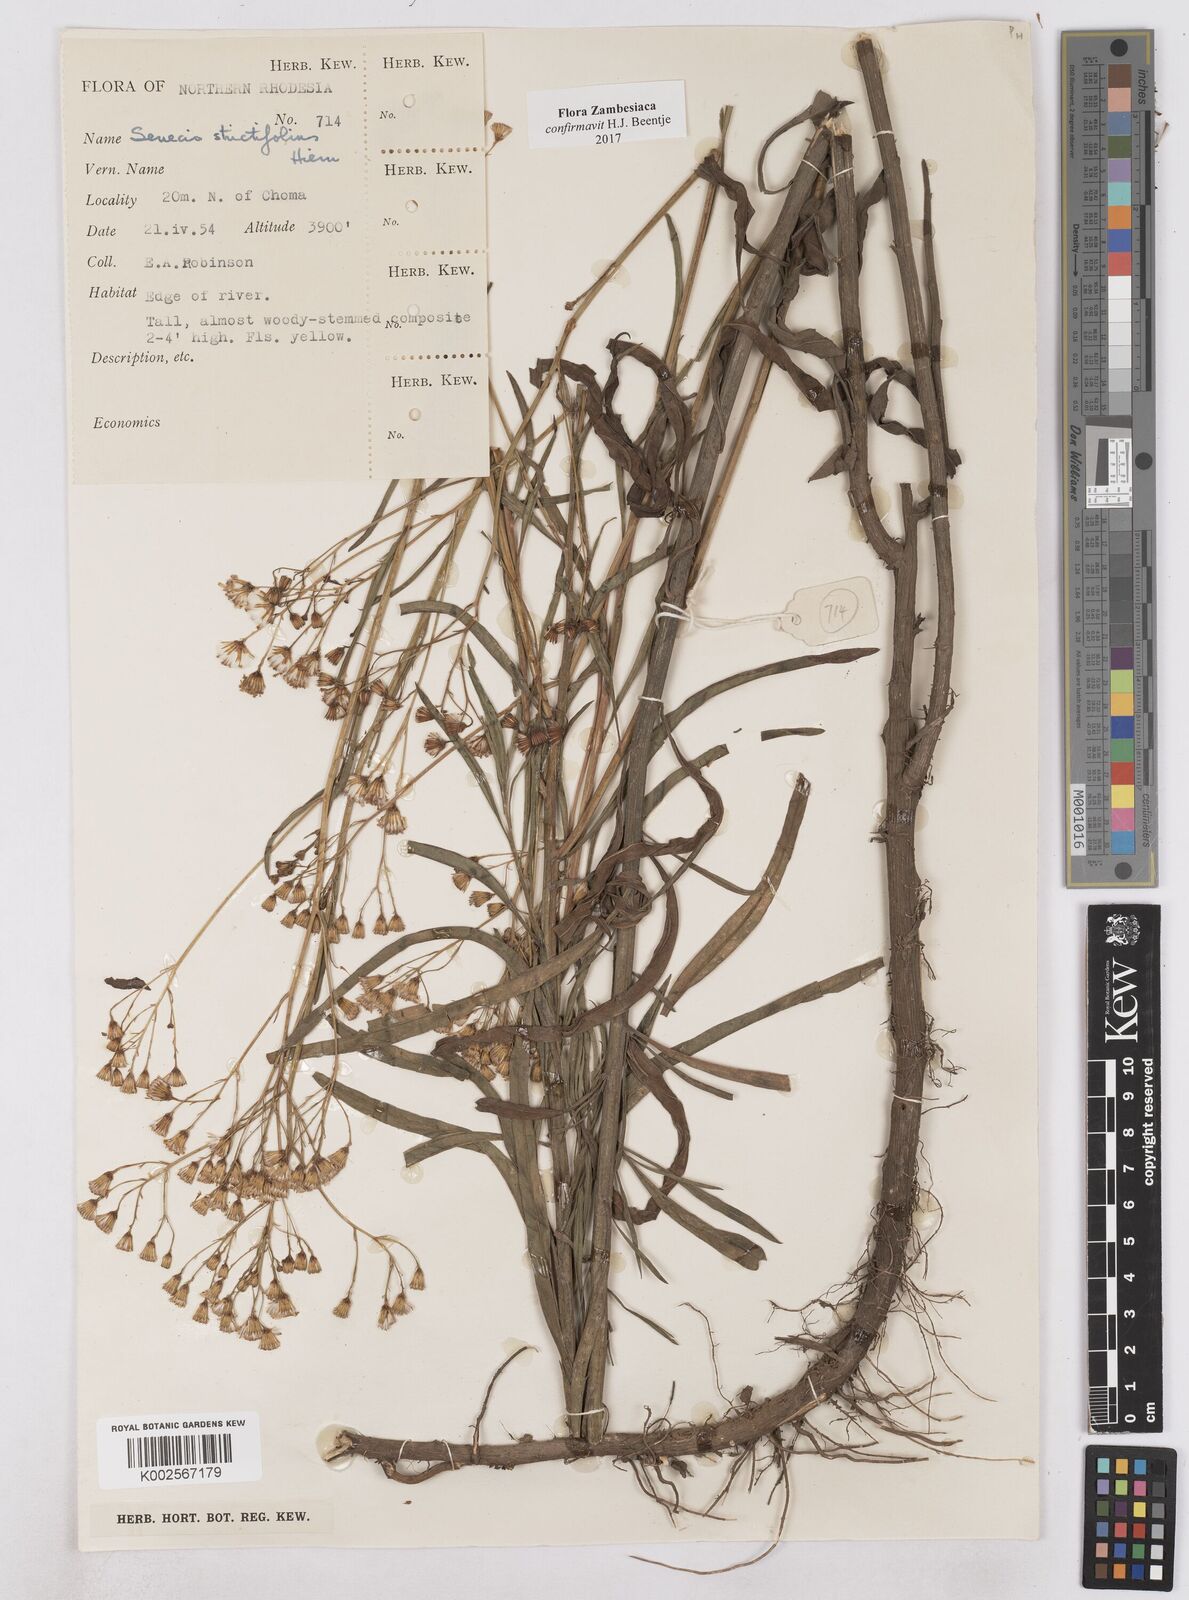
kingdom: Plantae
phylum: Tracheophyta
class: Magnoliopsida
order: Asterales
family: Asteraceae
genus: Senecio
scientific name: Senecio strictifolius
